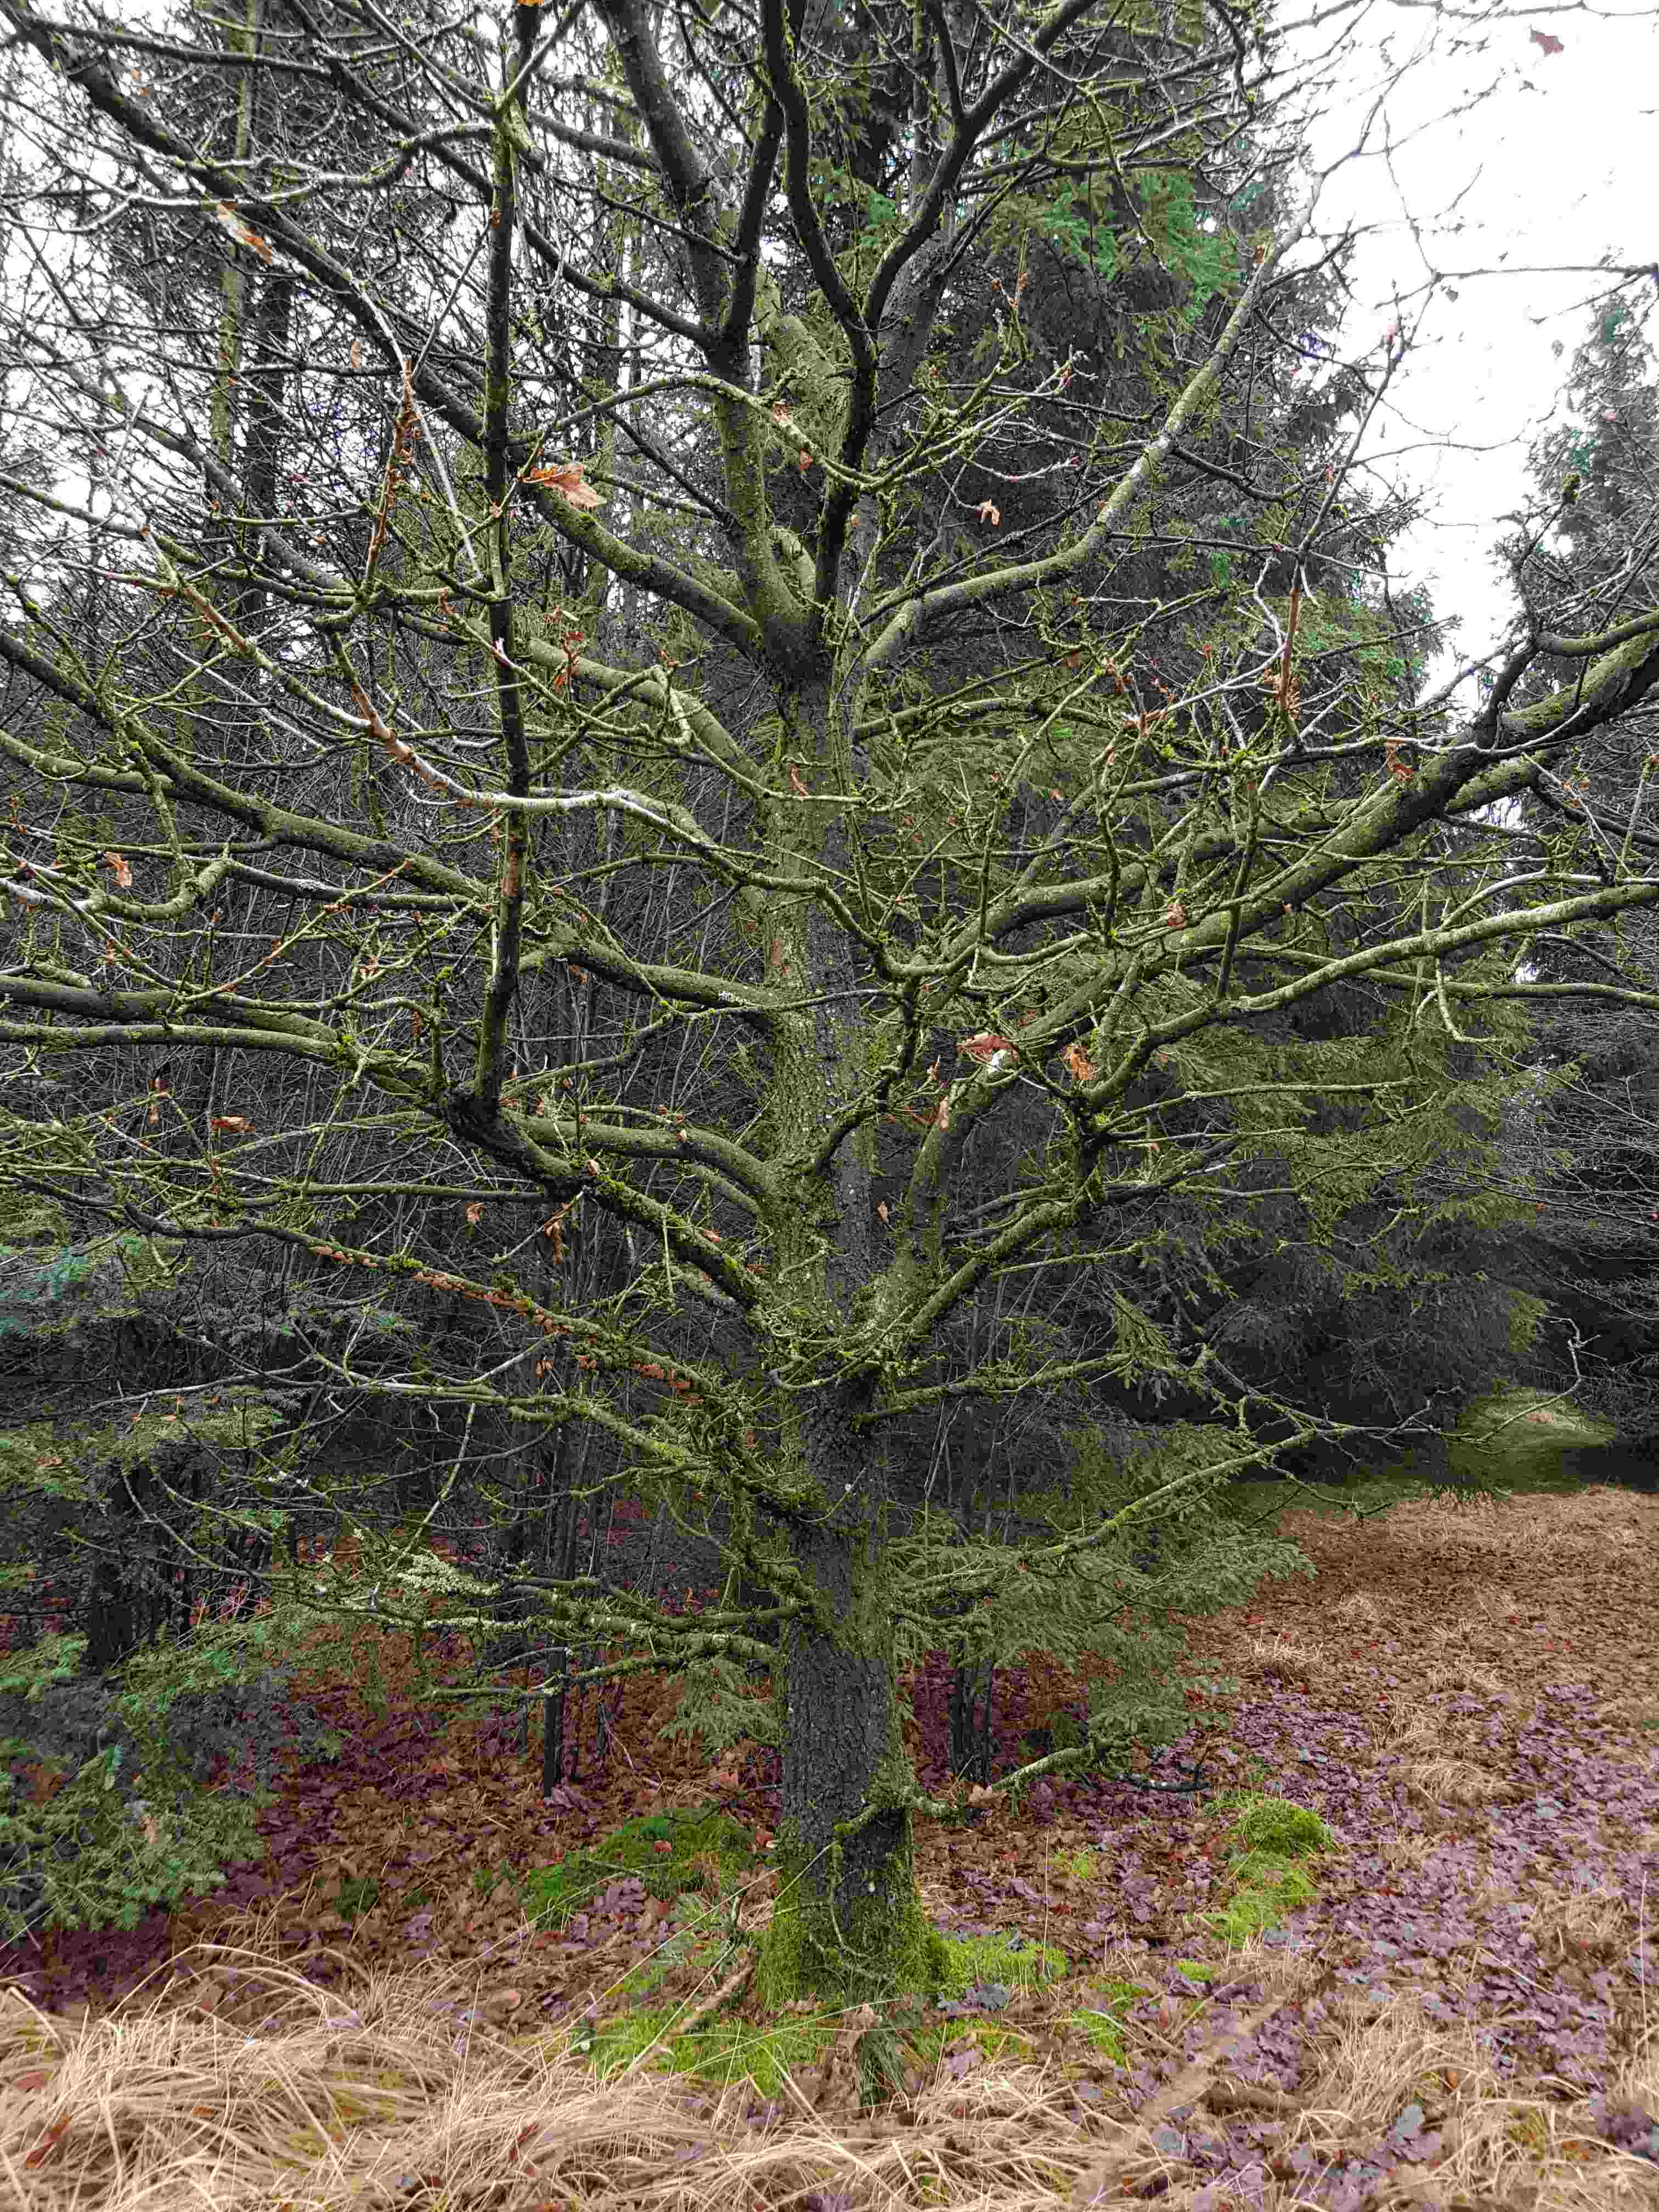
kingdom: Fungi
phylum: Basidiomycota
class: Agaricomycetes
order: Corticiales
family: Corticiaceae
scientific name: Corticiaceae
